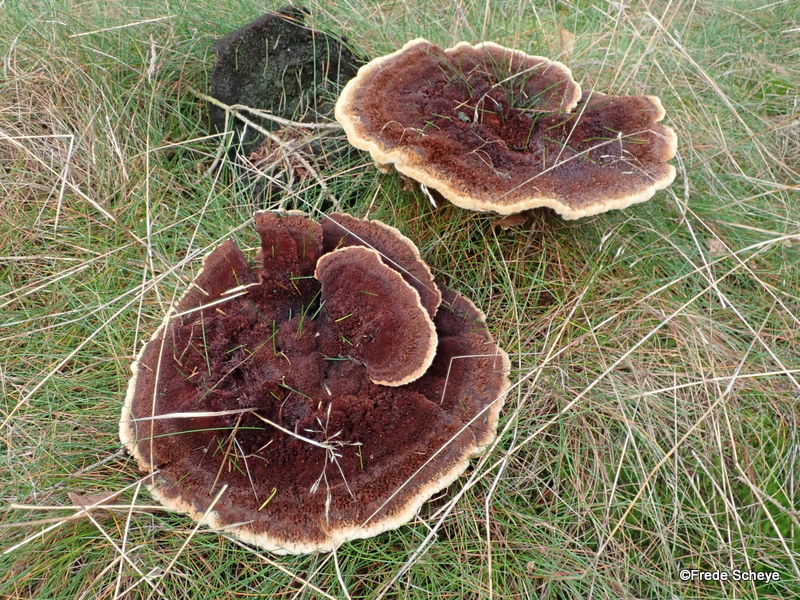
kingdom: Fungi
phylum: Basidiomycota
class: Agaricomycetes
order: Polyporales
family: Laetiporaceae
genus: Phaeolus
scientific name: Phaeolus schweinitzii
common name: brunporesvamp
